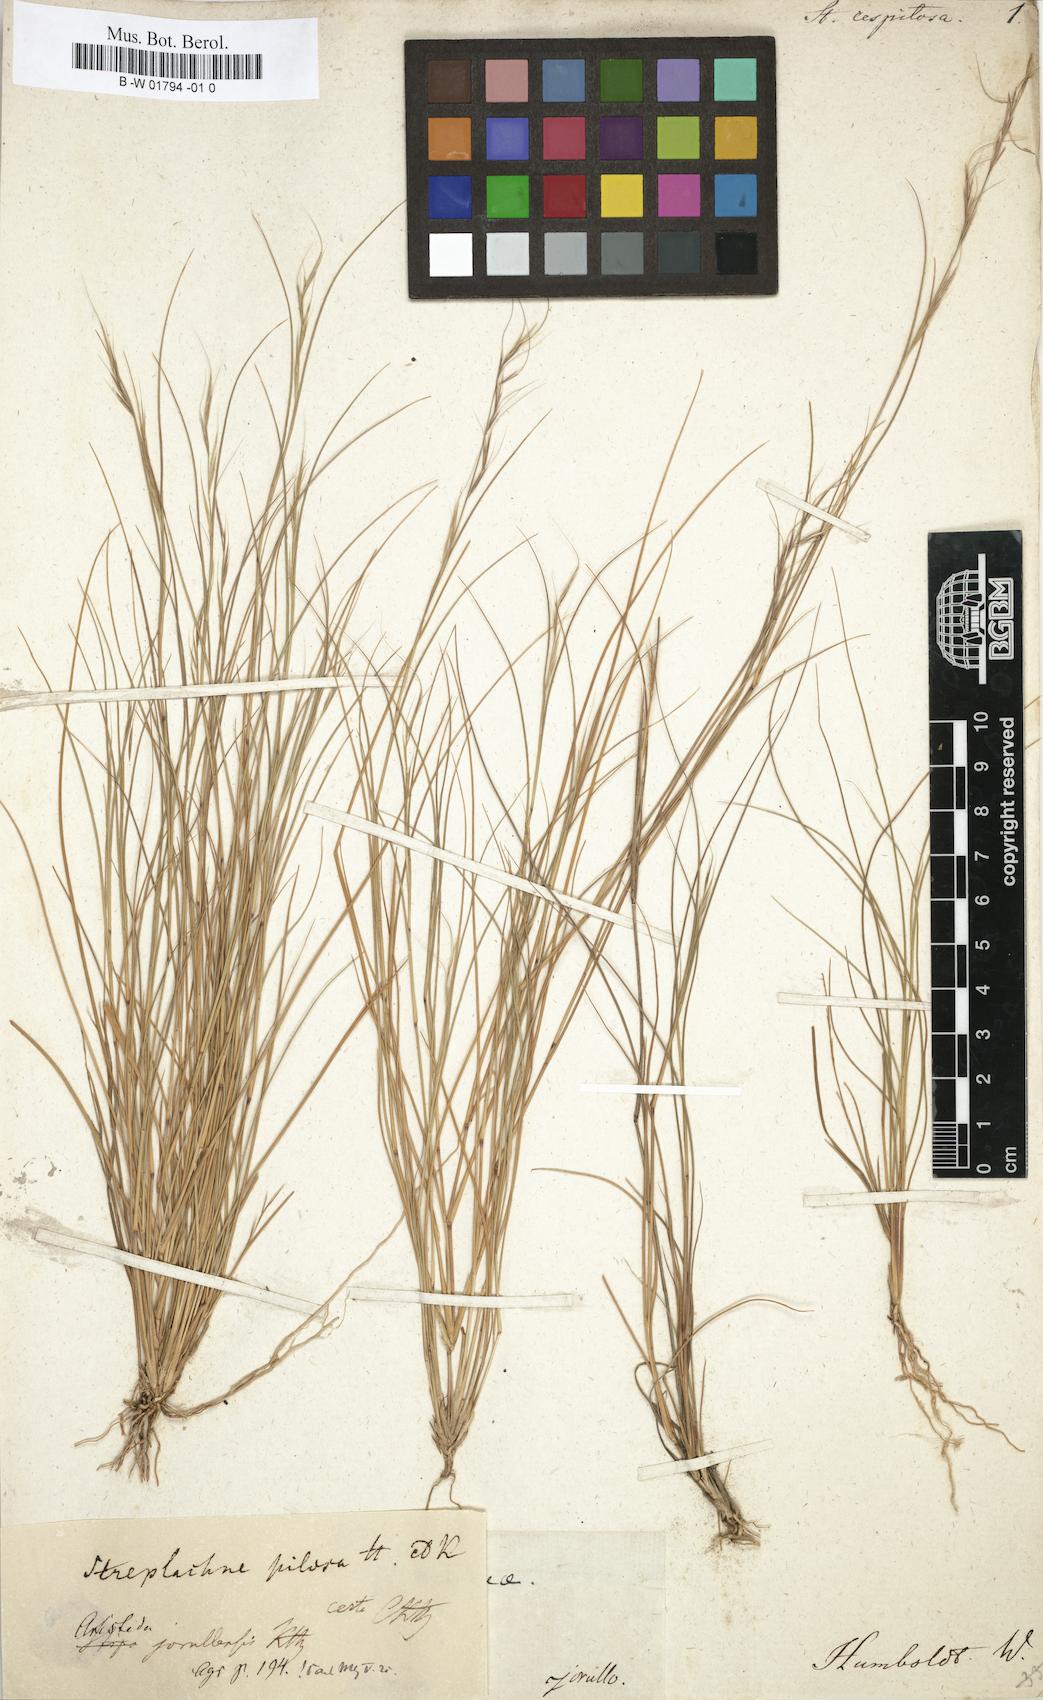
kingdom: Plantae
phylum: Tracheophyta
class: Liliopsida
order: Poales
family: Poaceae
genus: Aristida
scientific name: Aristida jorullensis
